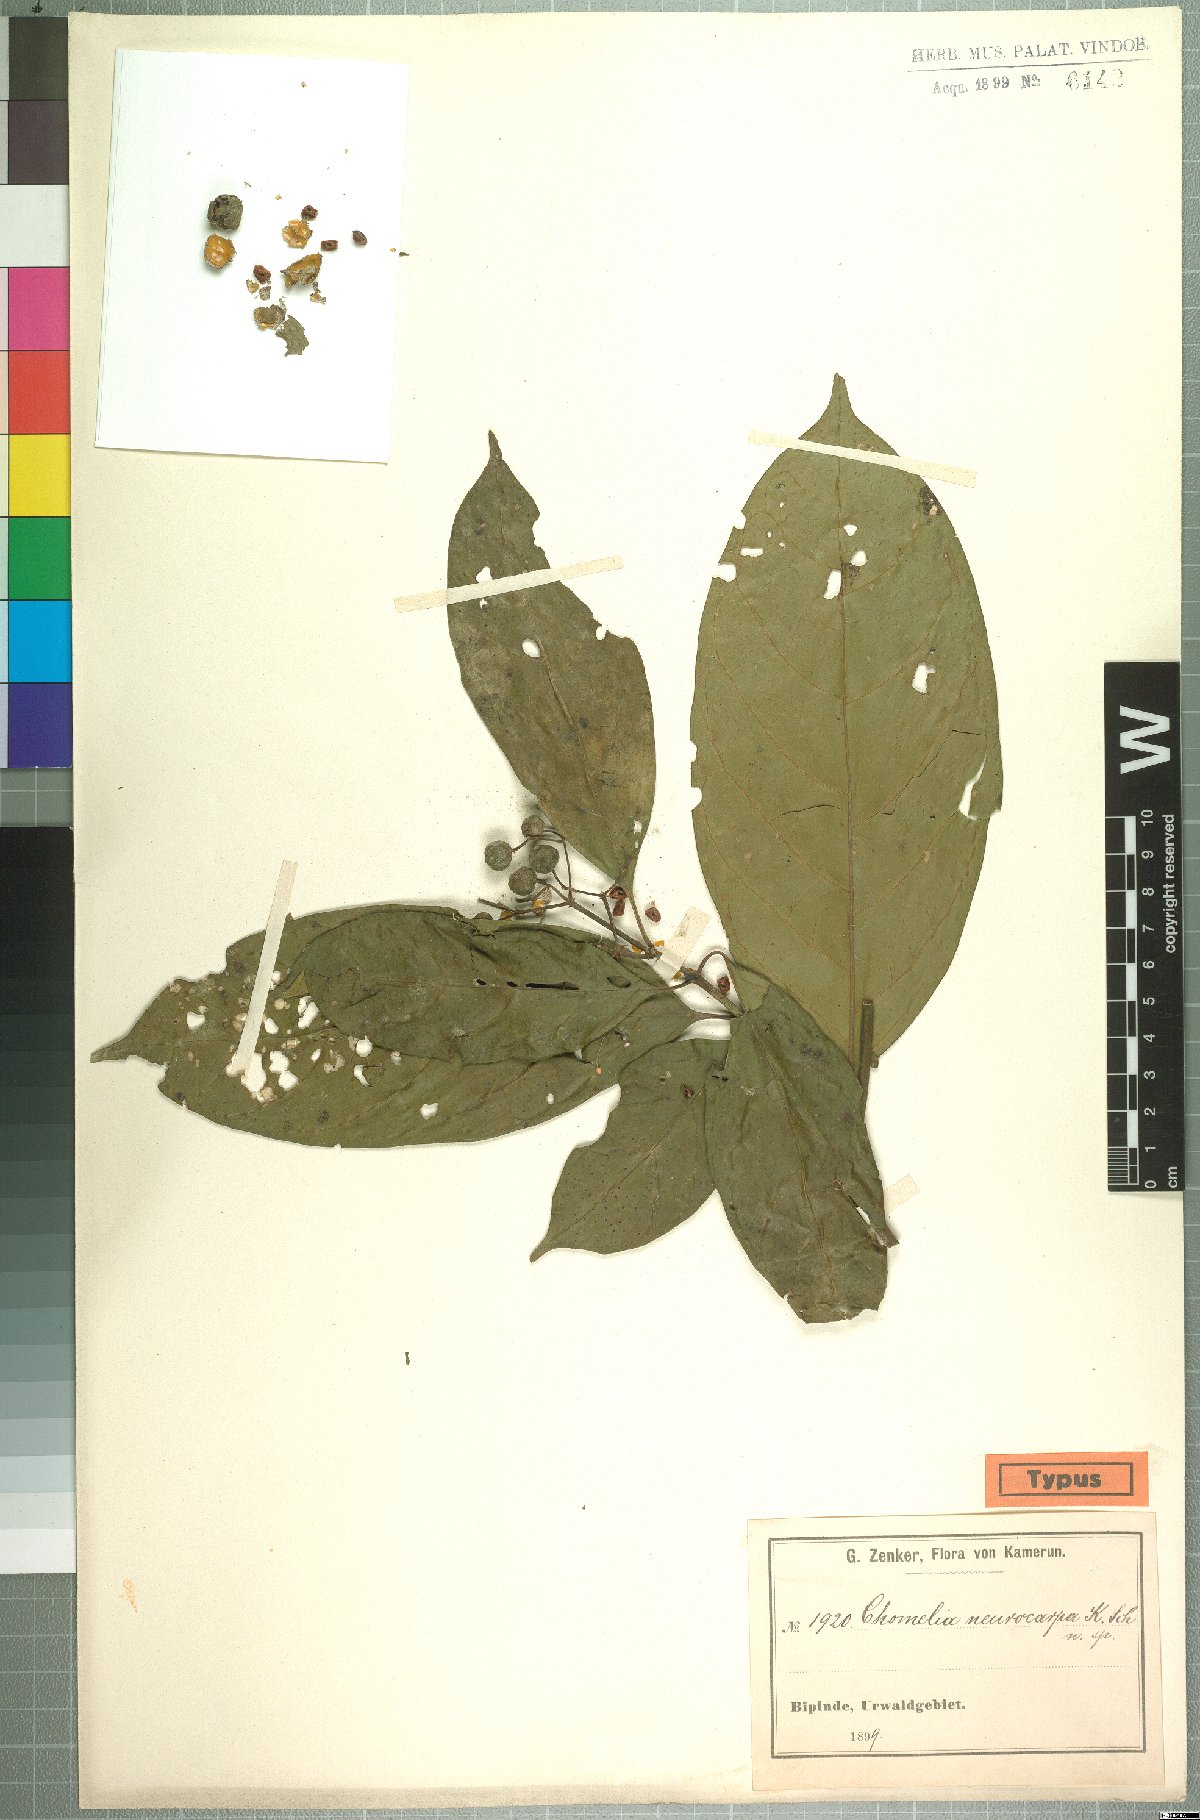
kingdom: Plantae
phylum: Tracheophyta
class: Magnoliopsida
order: Gentianales
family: Rubiaceae
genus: Tarenna
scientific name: Tarenna grandiflora
